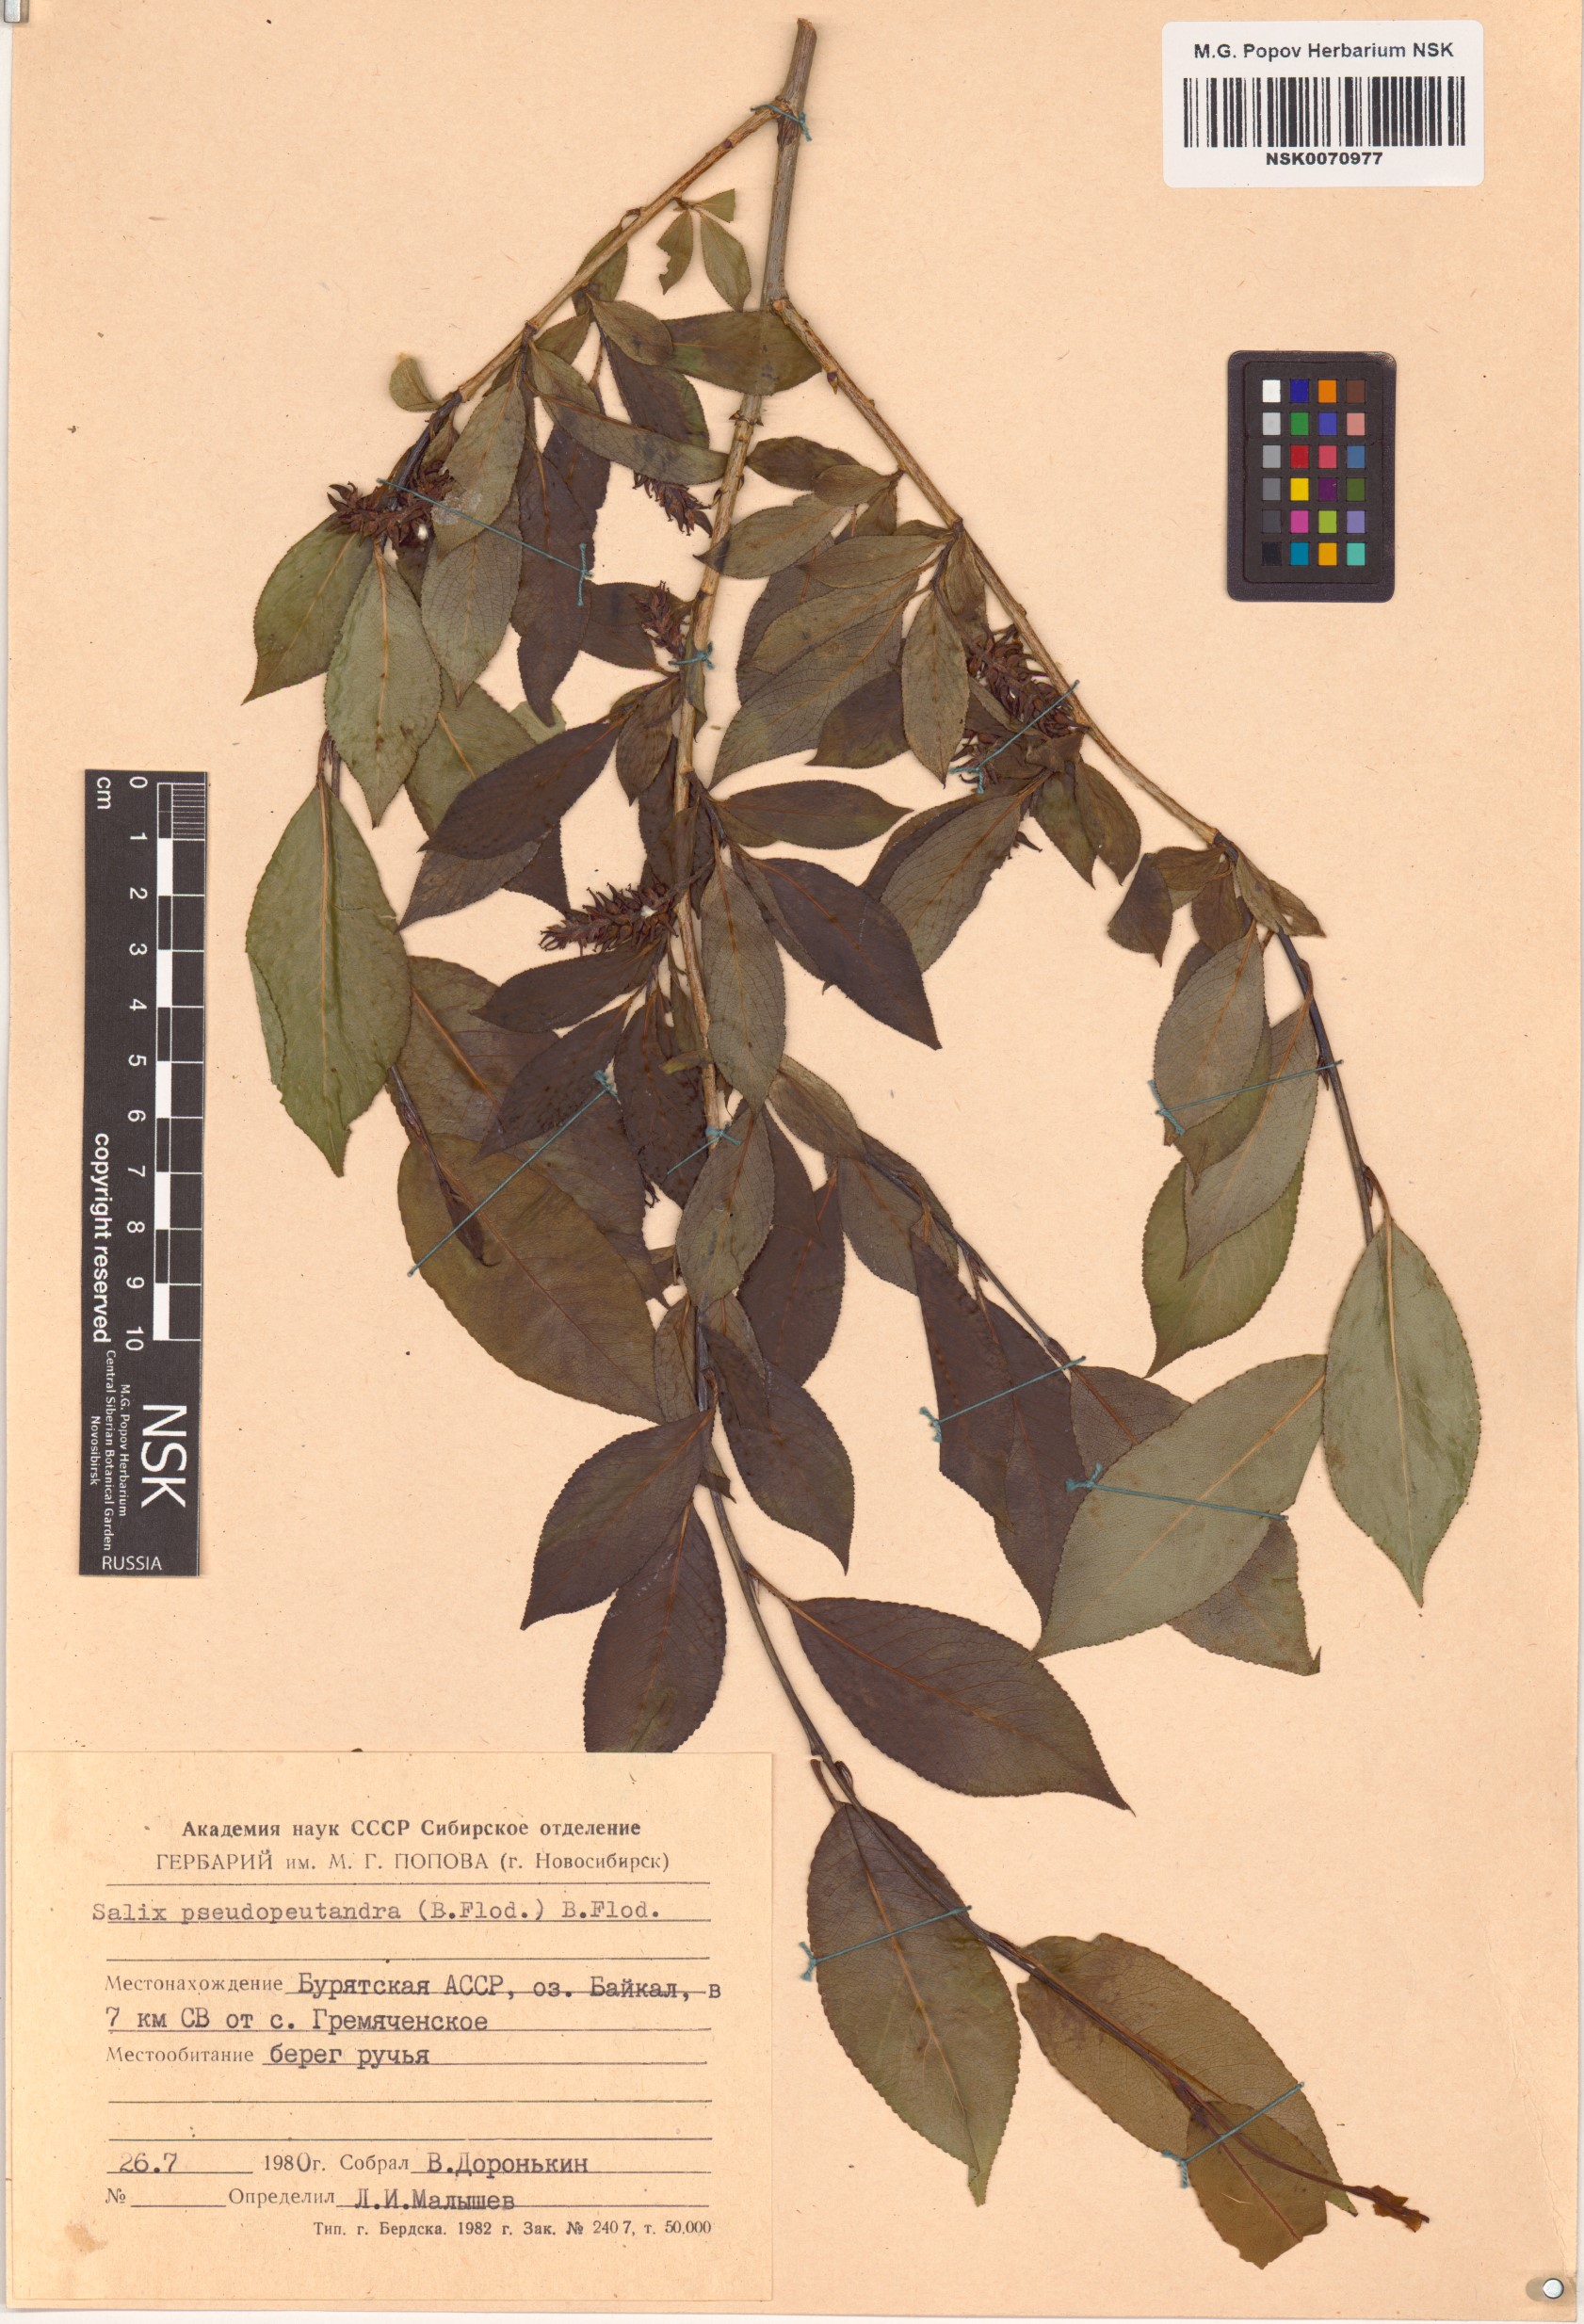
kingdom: Plantae
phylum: Tracheophyta
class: Magnoliopsida
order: Malpighiales
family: Salicaceae
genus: Salix
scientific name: Salix pseudopentandra
